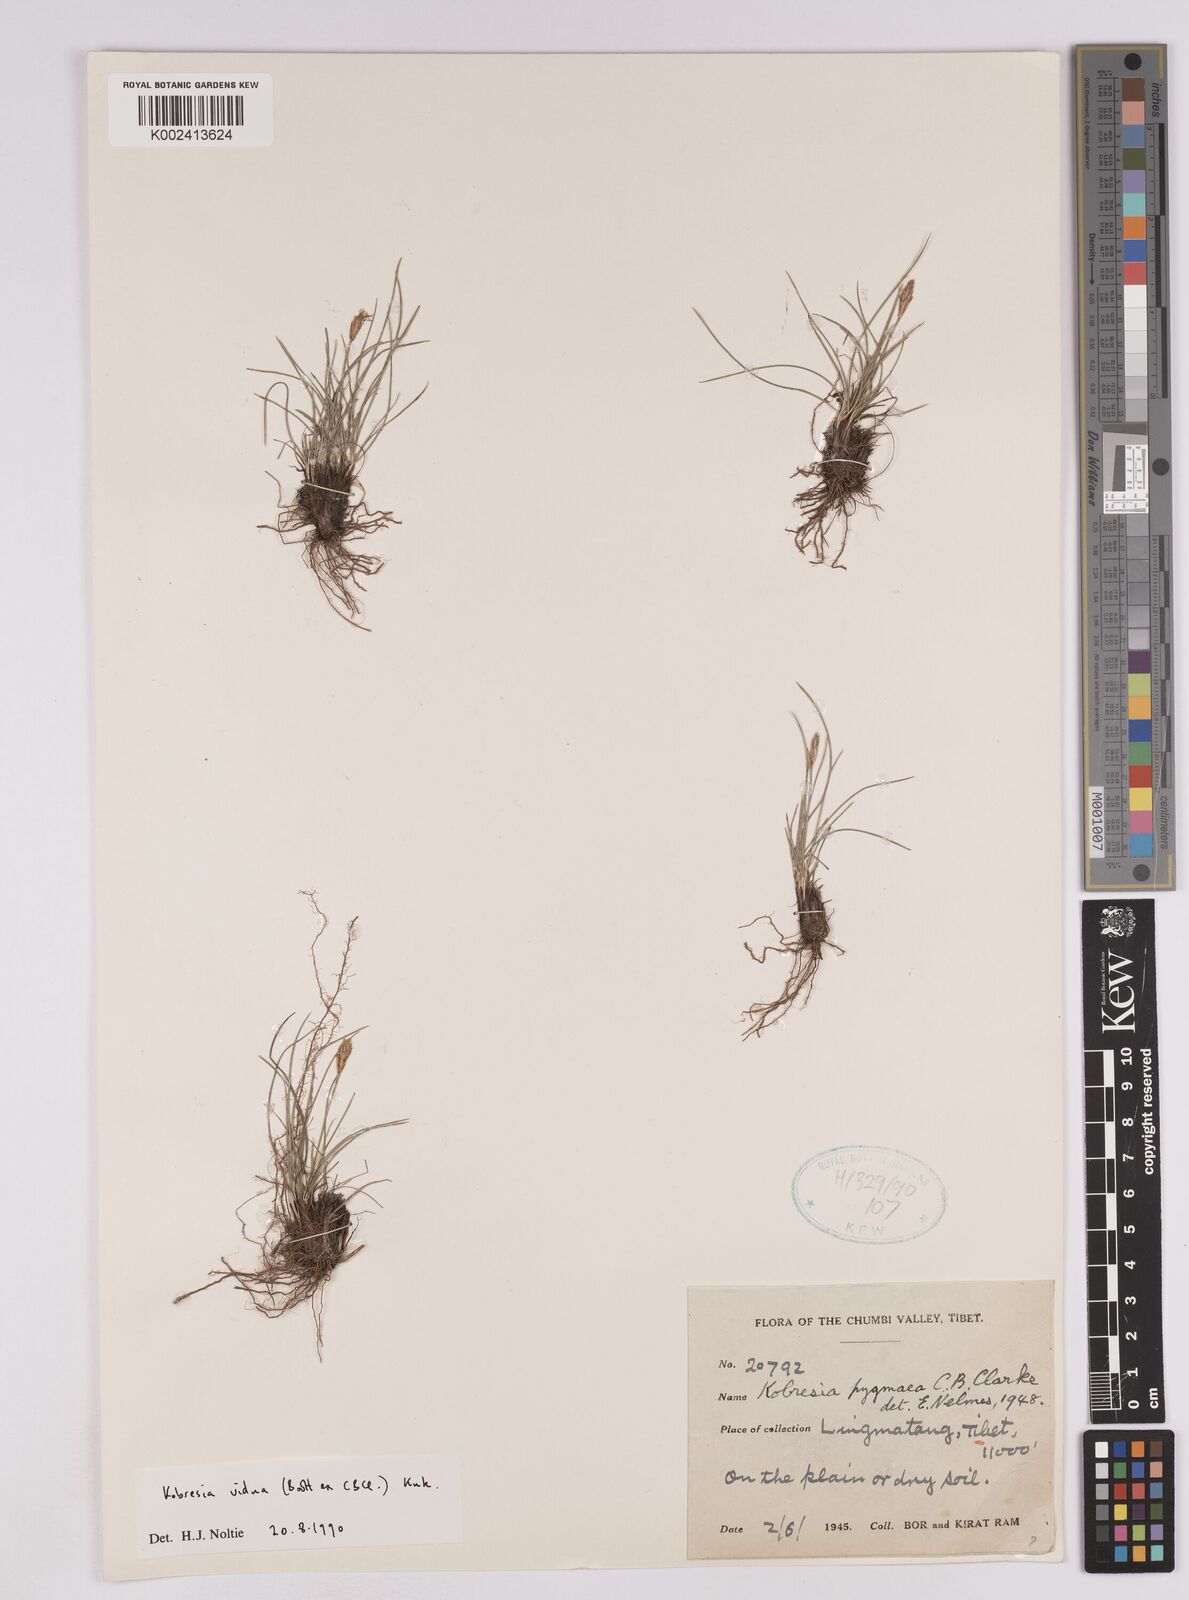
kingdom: Plantae
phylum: Tracheophyta
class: Liliopsida
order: Poales
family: Cyperaceae
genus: Carex
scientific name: Carex vidua
